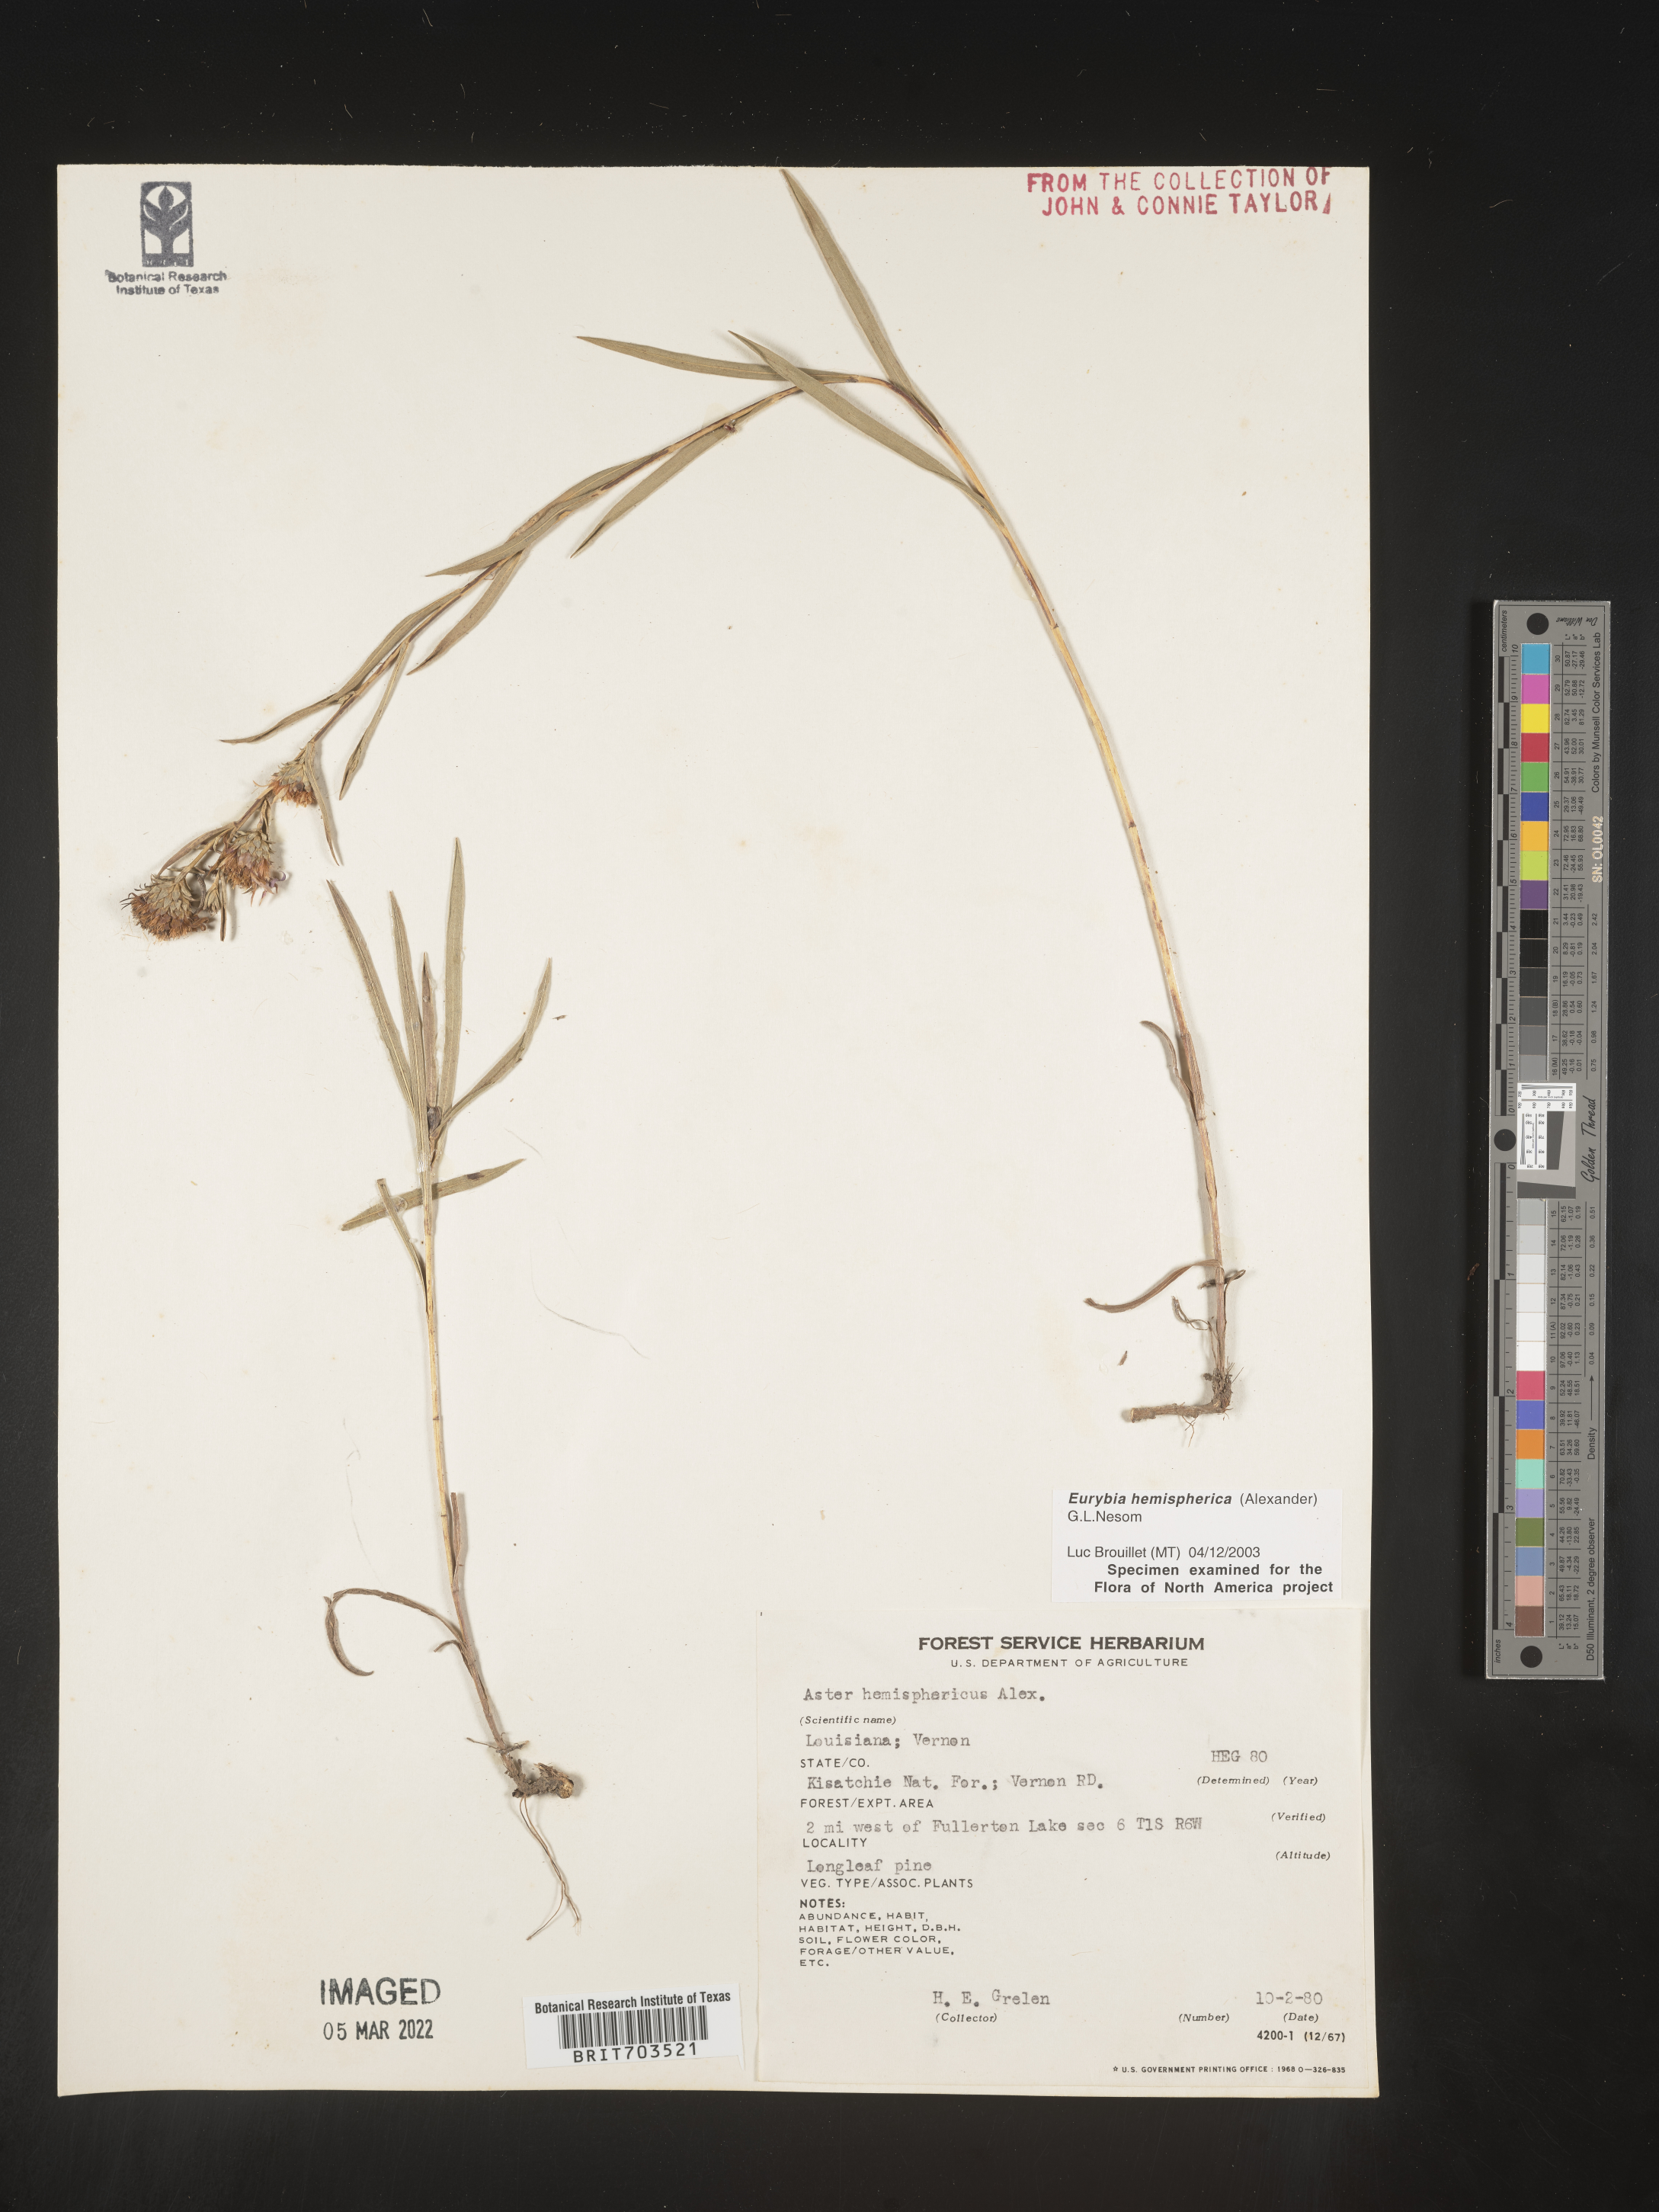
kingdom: Plantae
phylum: Tracheophyta
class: Magnoliopsida
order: Asterales
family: Asteraceae
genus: Eurybia
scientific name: Eurybia hemispherica
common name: Showy aster
